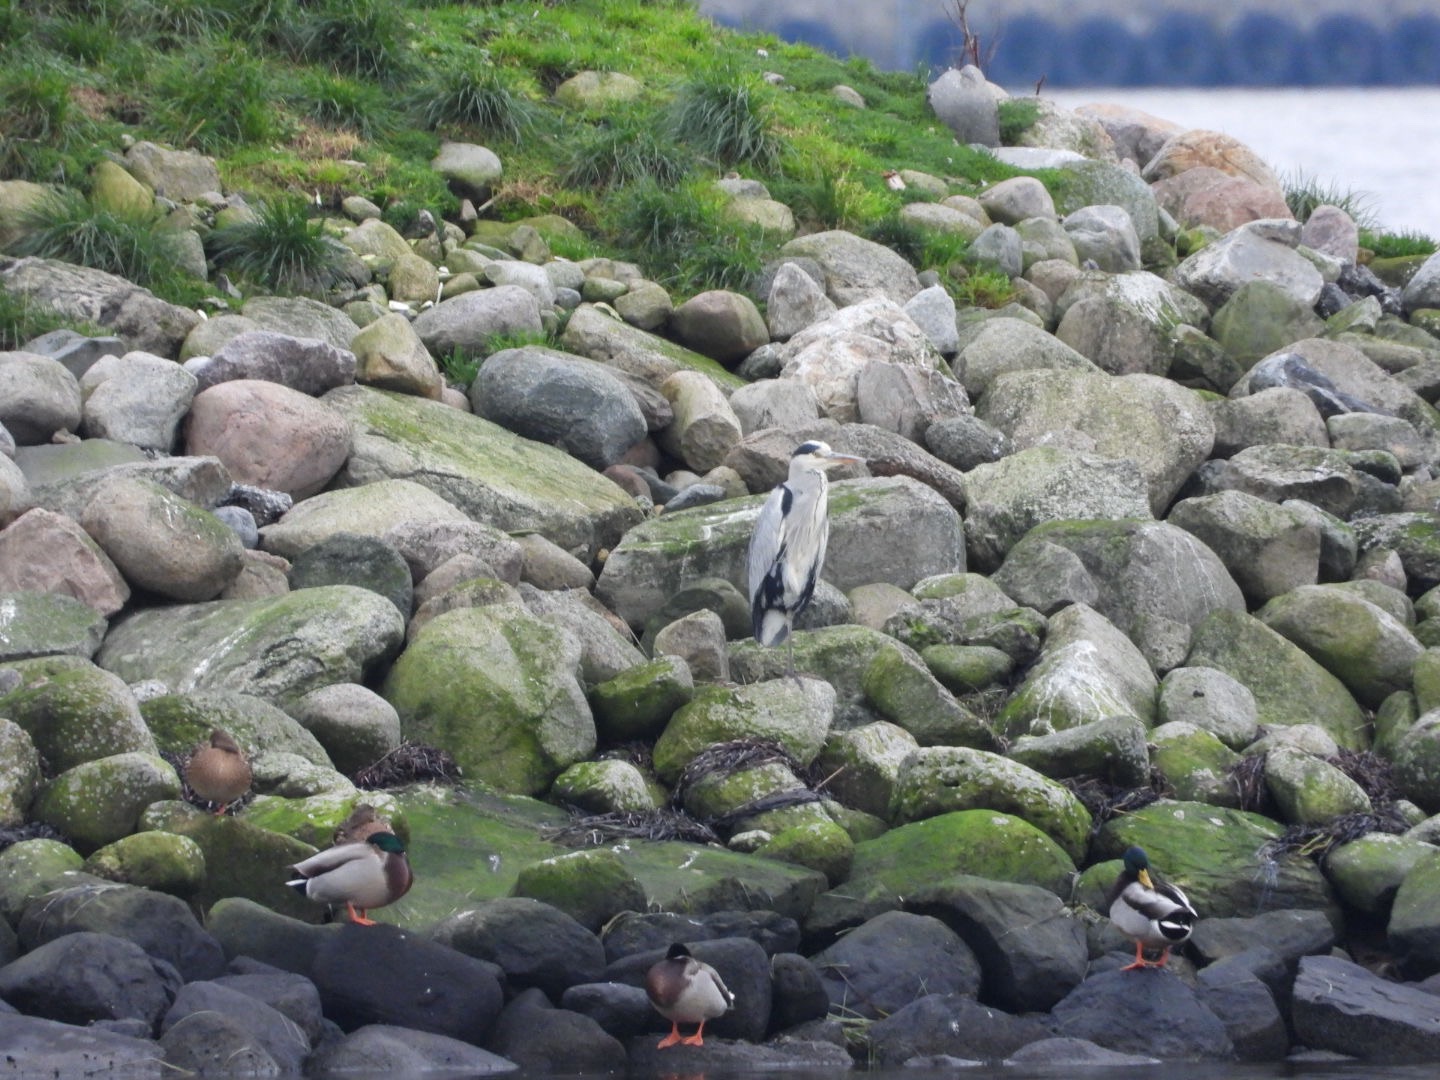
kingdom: Animalia
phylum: Chordata
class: Aves
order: Pelecaniformes
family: Ardeidae
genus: Ardea
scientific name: Ardea cinerea
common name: Fiskehejre
